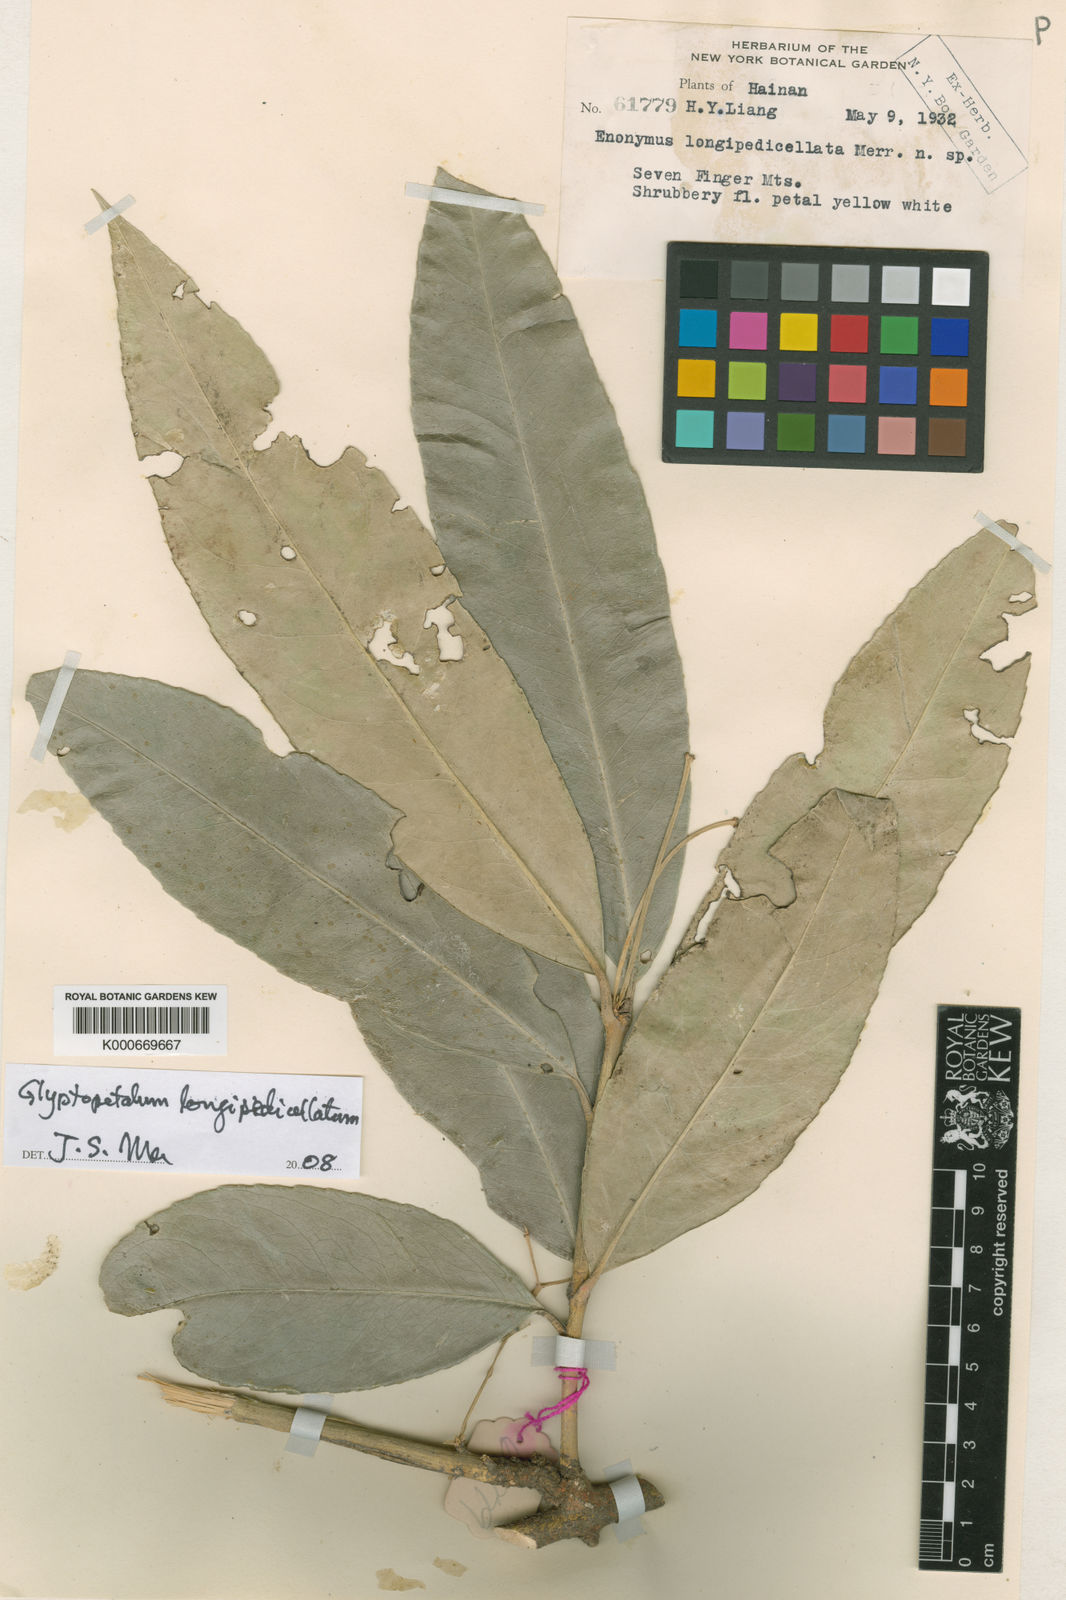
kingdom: Plantae
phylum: Tracheophyta
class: Magnoliopsida
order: Celastrales
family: Celastraceae
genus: Euonymus
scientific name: Euonymus longipedicellatus
